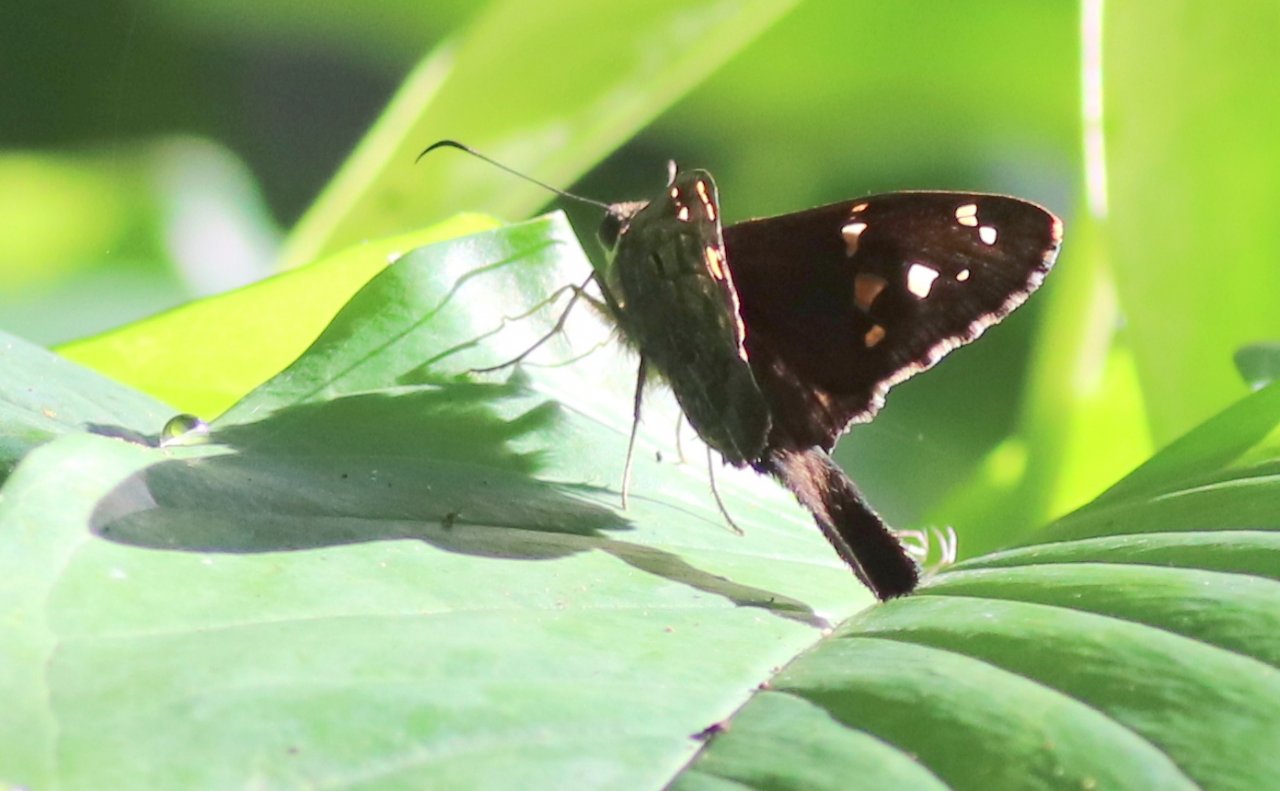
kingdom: Animalia
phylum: Arthropoda
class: Insecta
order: Lepidoptera
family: Hesperiidae
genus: Urbanus
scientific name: Urbanus proteus
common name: Long-tailed Skipper
